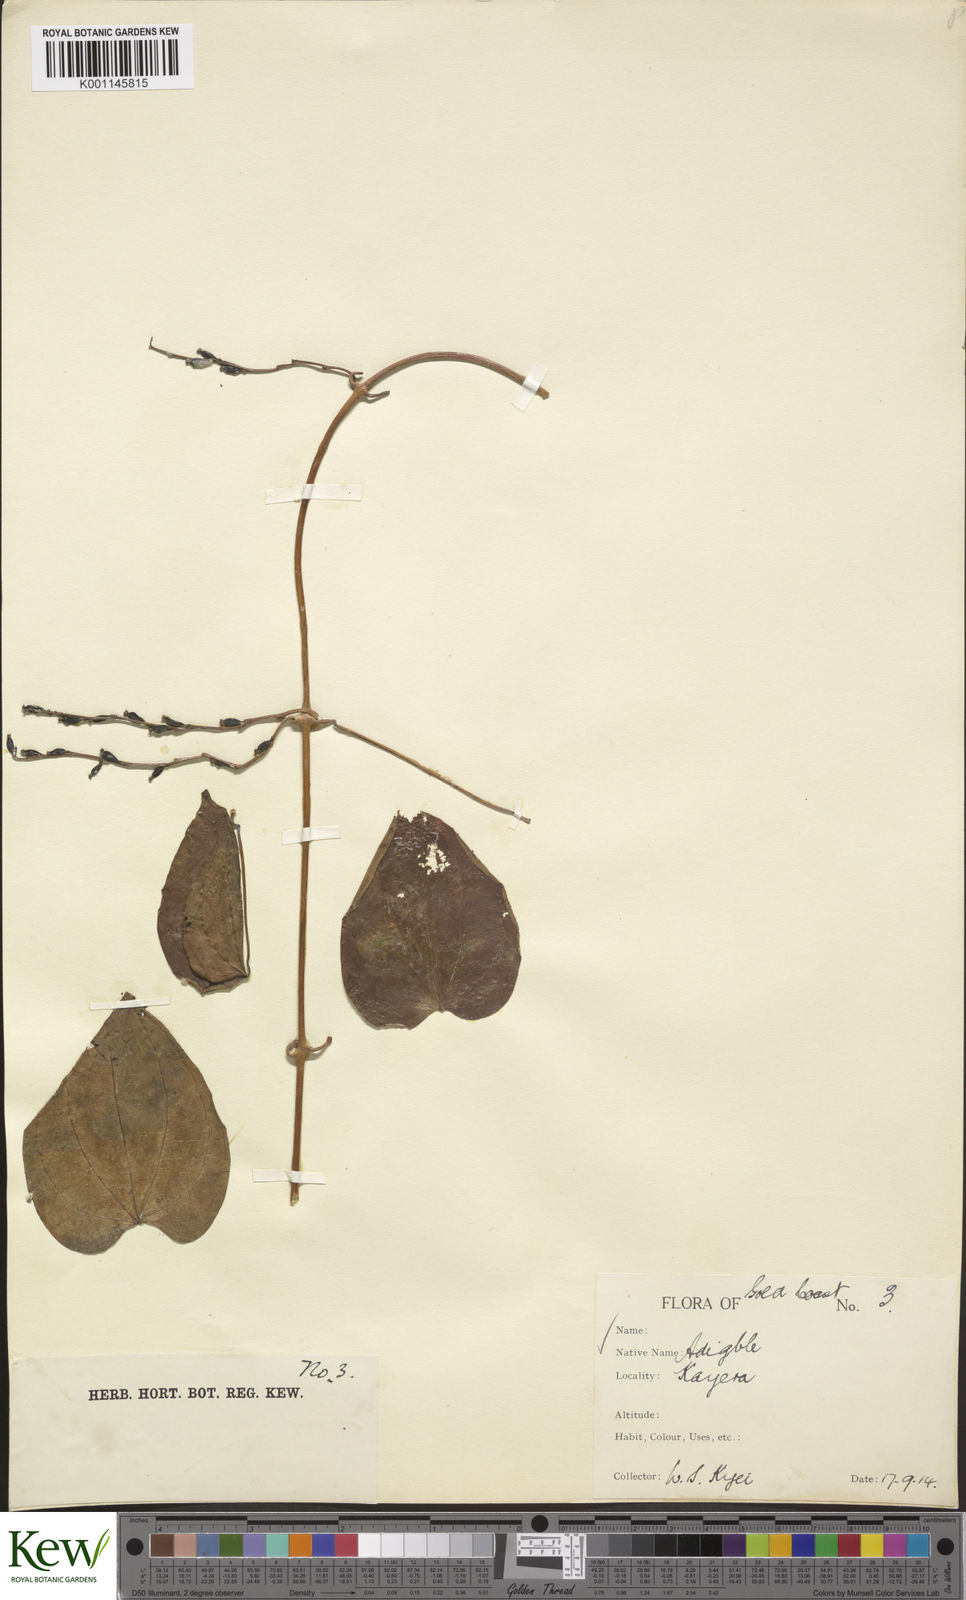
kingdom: Plantae
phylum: Tracheophyta
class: Liliopsida
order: Dioscoreales
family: Dioscoreaceae
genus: Dioscorea
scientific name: Dioscorea cayenensis
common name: Attoto yam
